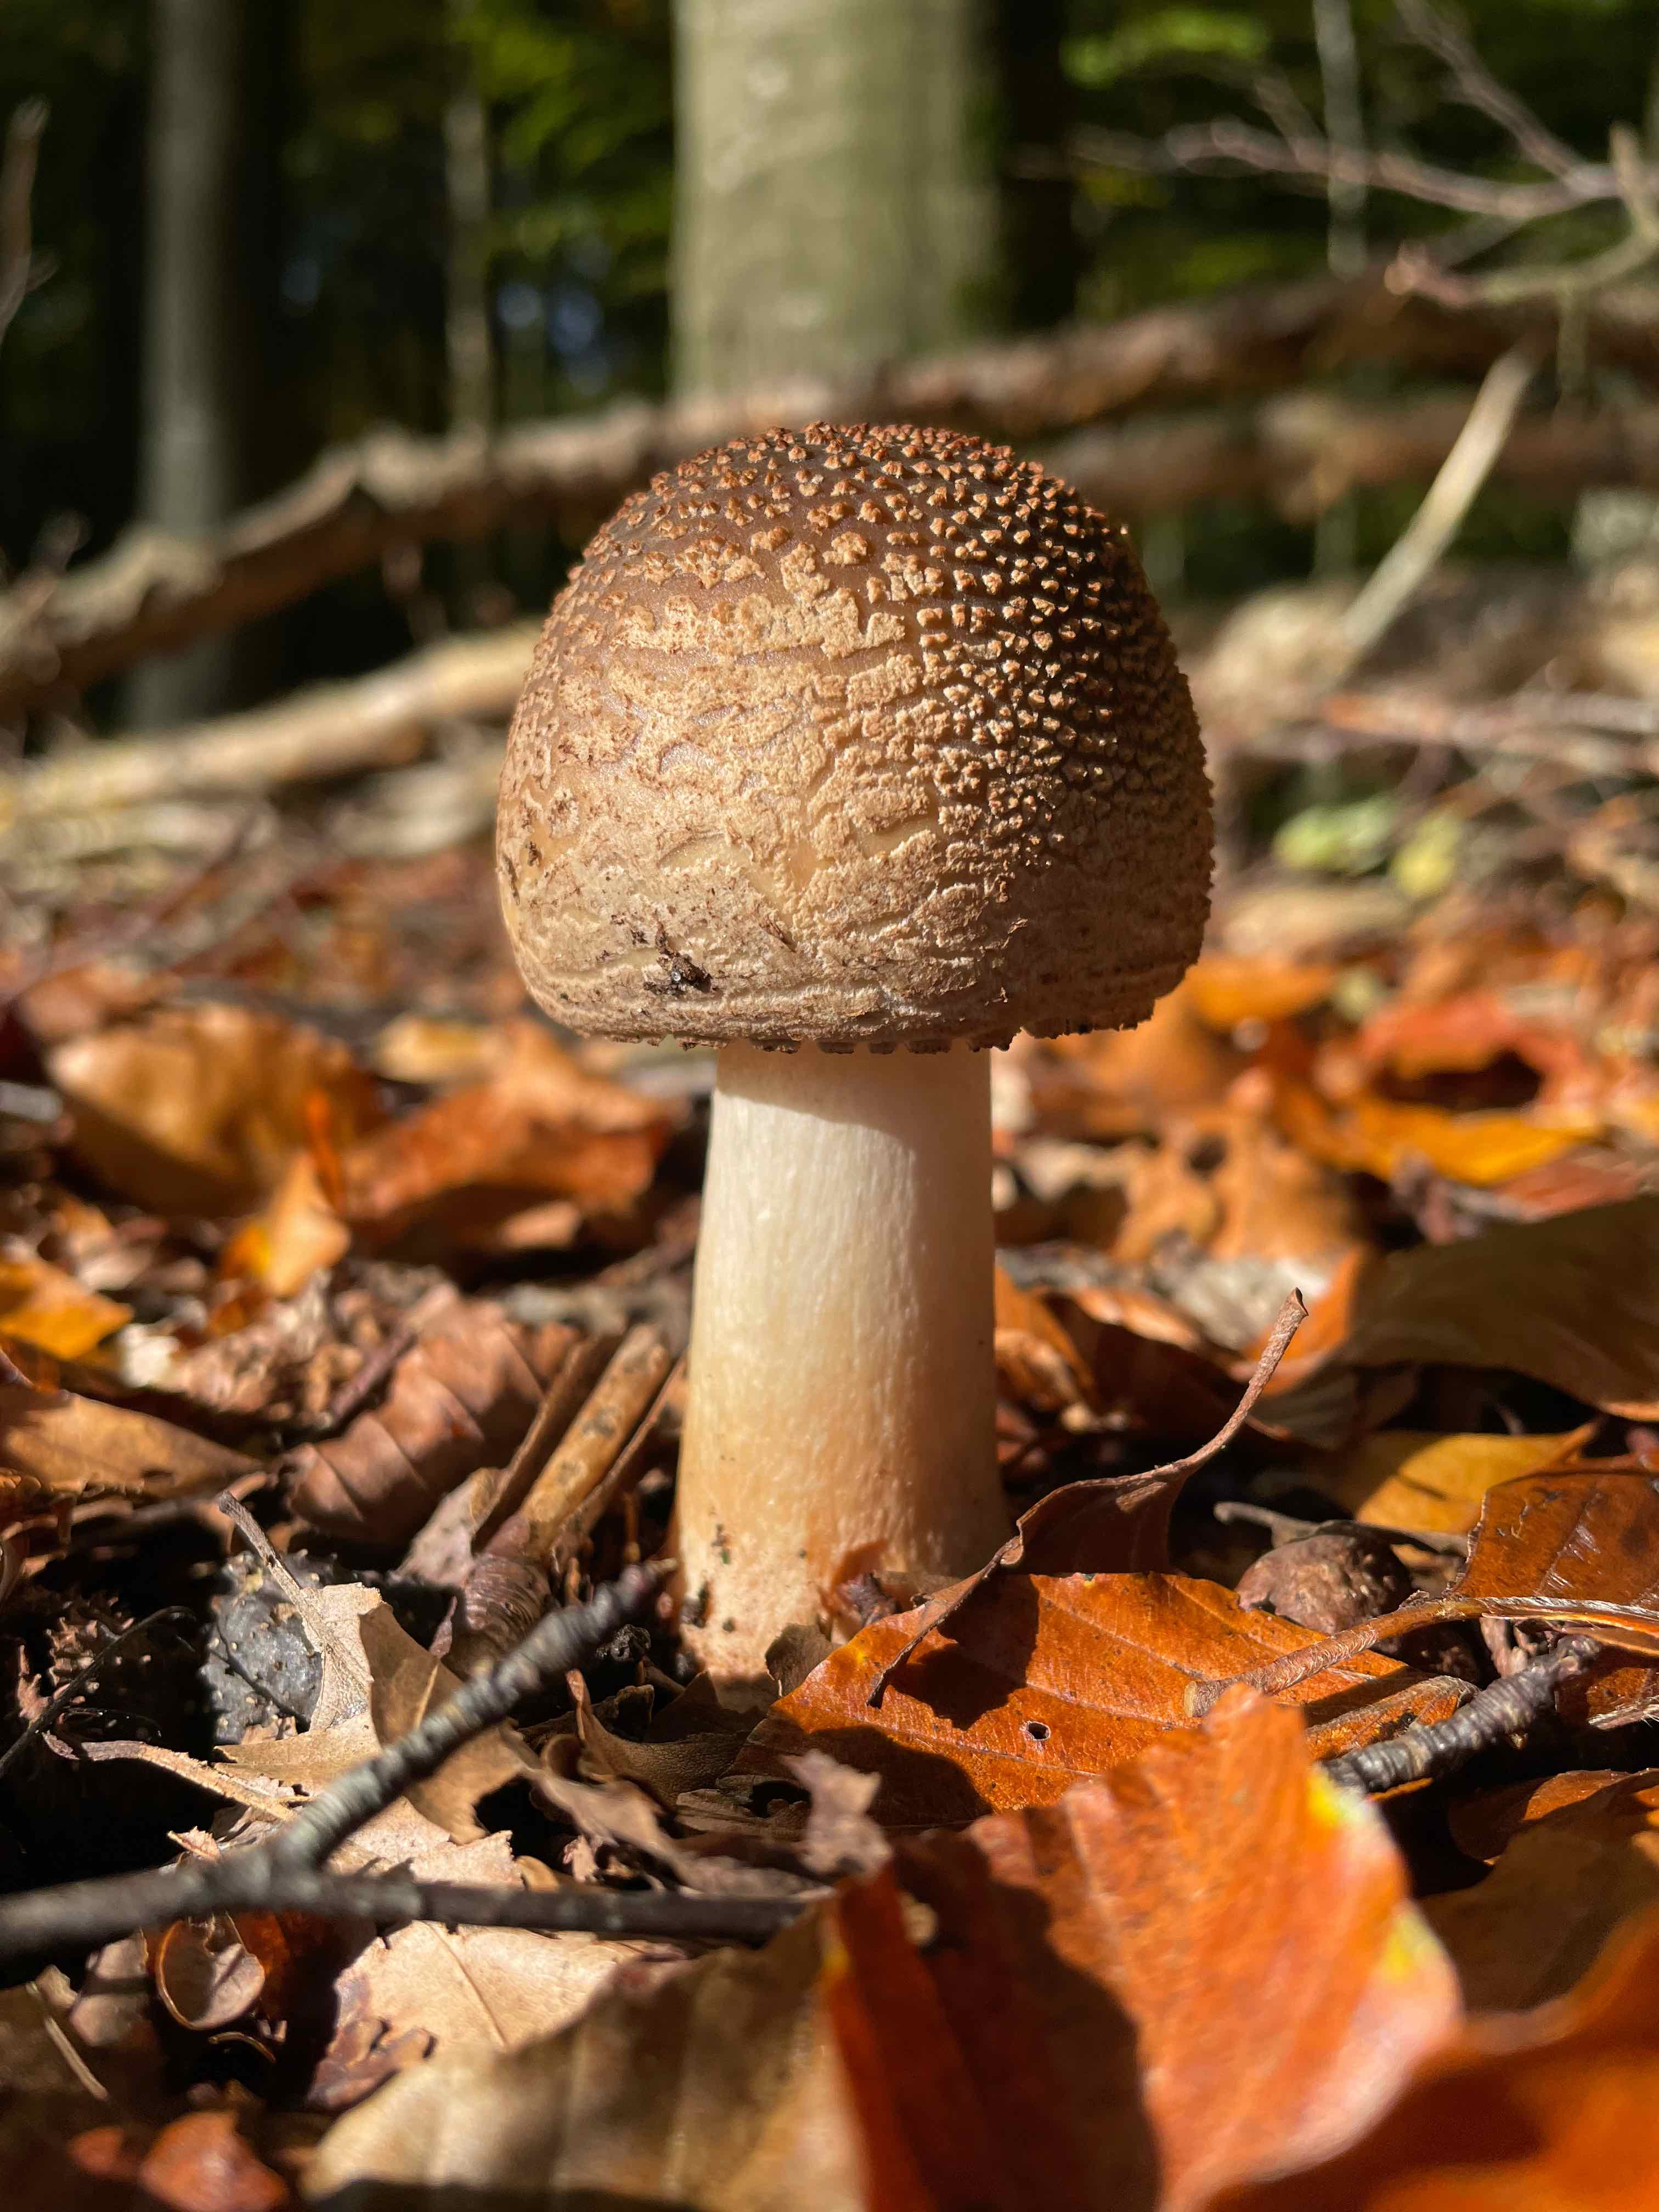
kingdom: Fungi
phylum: Basidiomycota
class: Agaricomycetes
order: Agaricales
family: Amanitaceae
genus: Amanita
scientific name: Amanita rubescens
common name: rødmende fluesvamp
